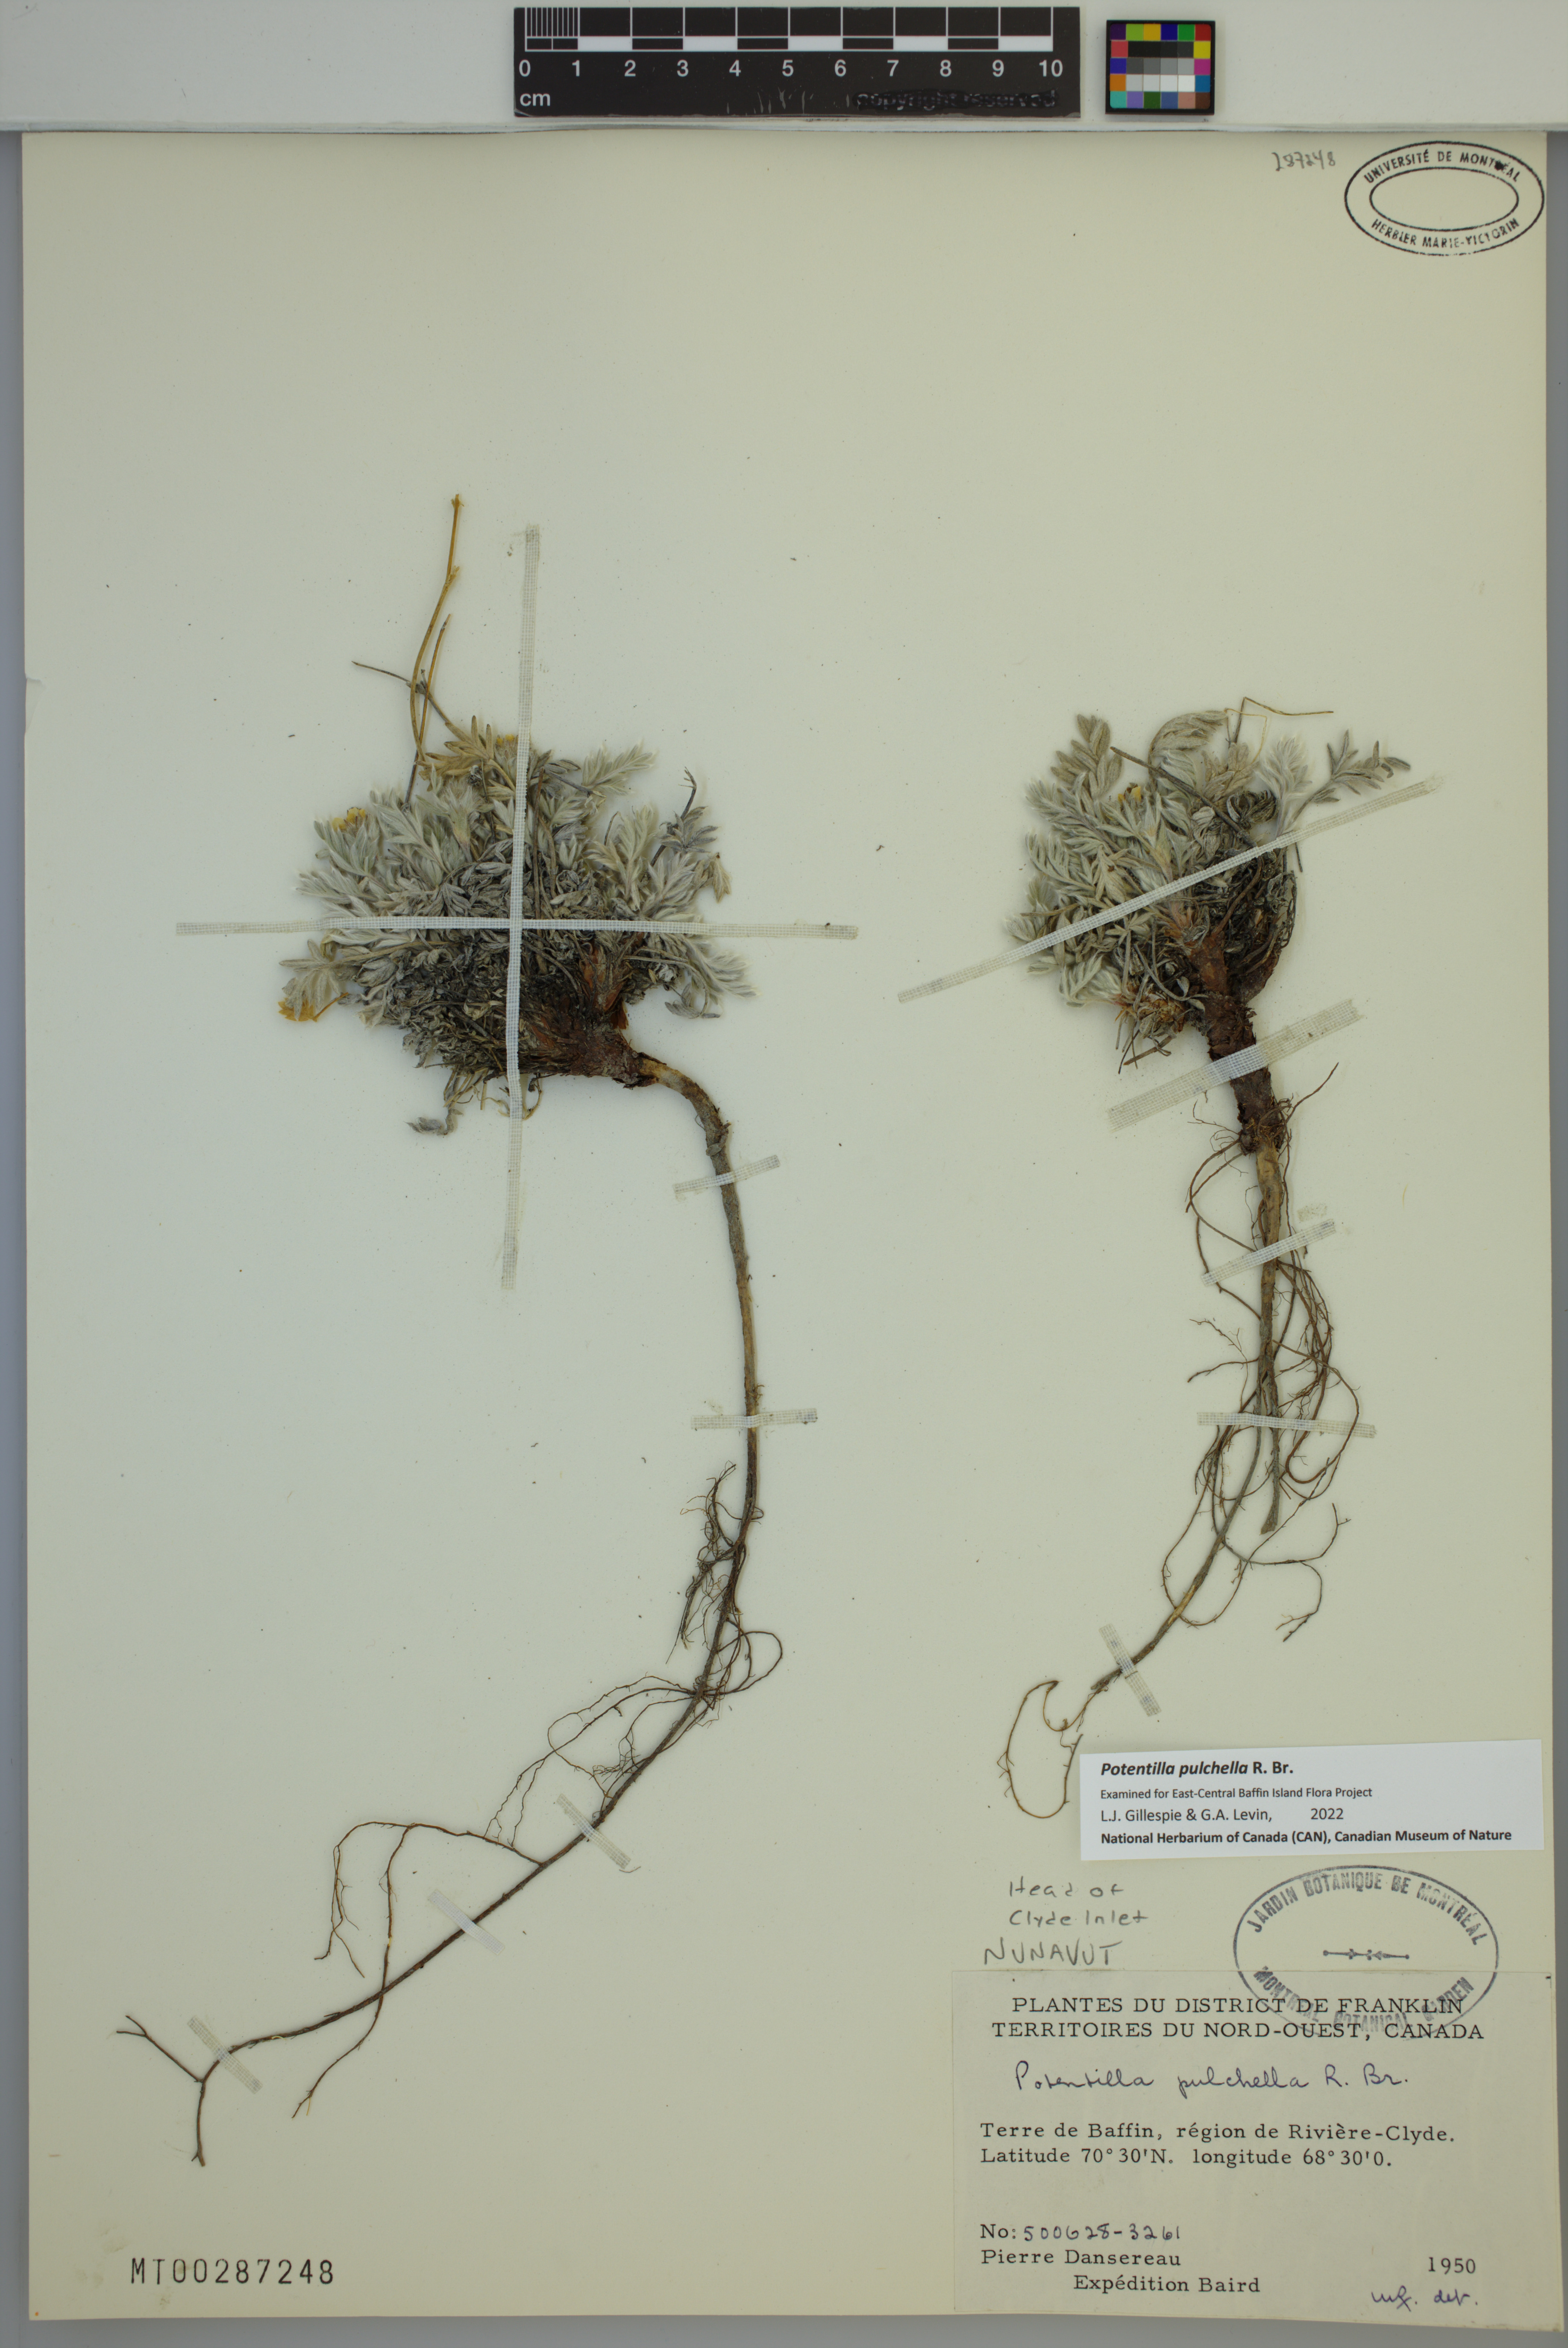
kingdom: Plantae
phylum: Tracheophyta
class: Magnoliopsida
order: Rosales
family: Rosaceae
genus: Potentilla
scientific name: Potentilla pulchella
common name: Pretty cinquefoil
